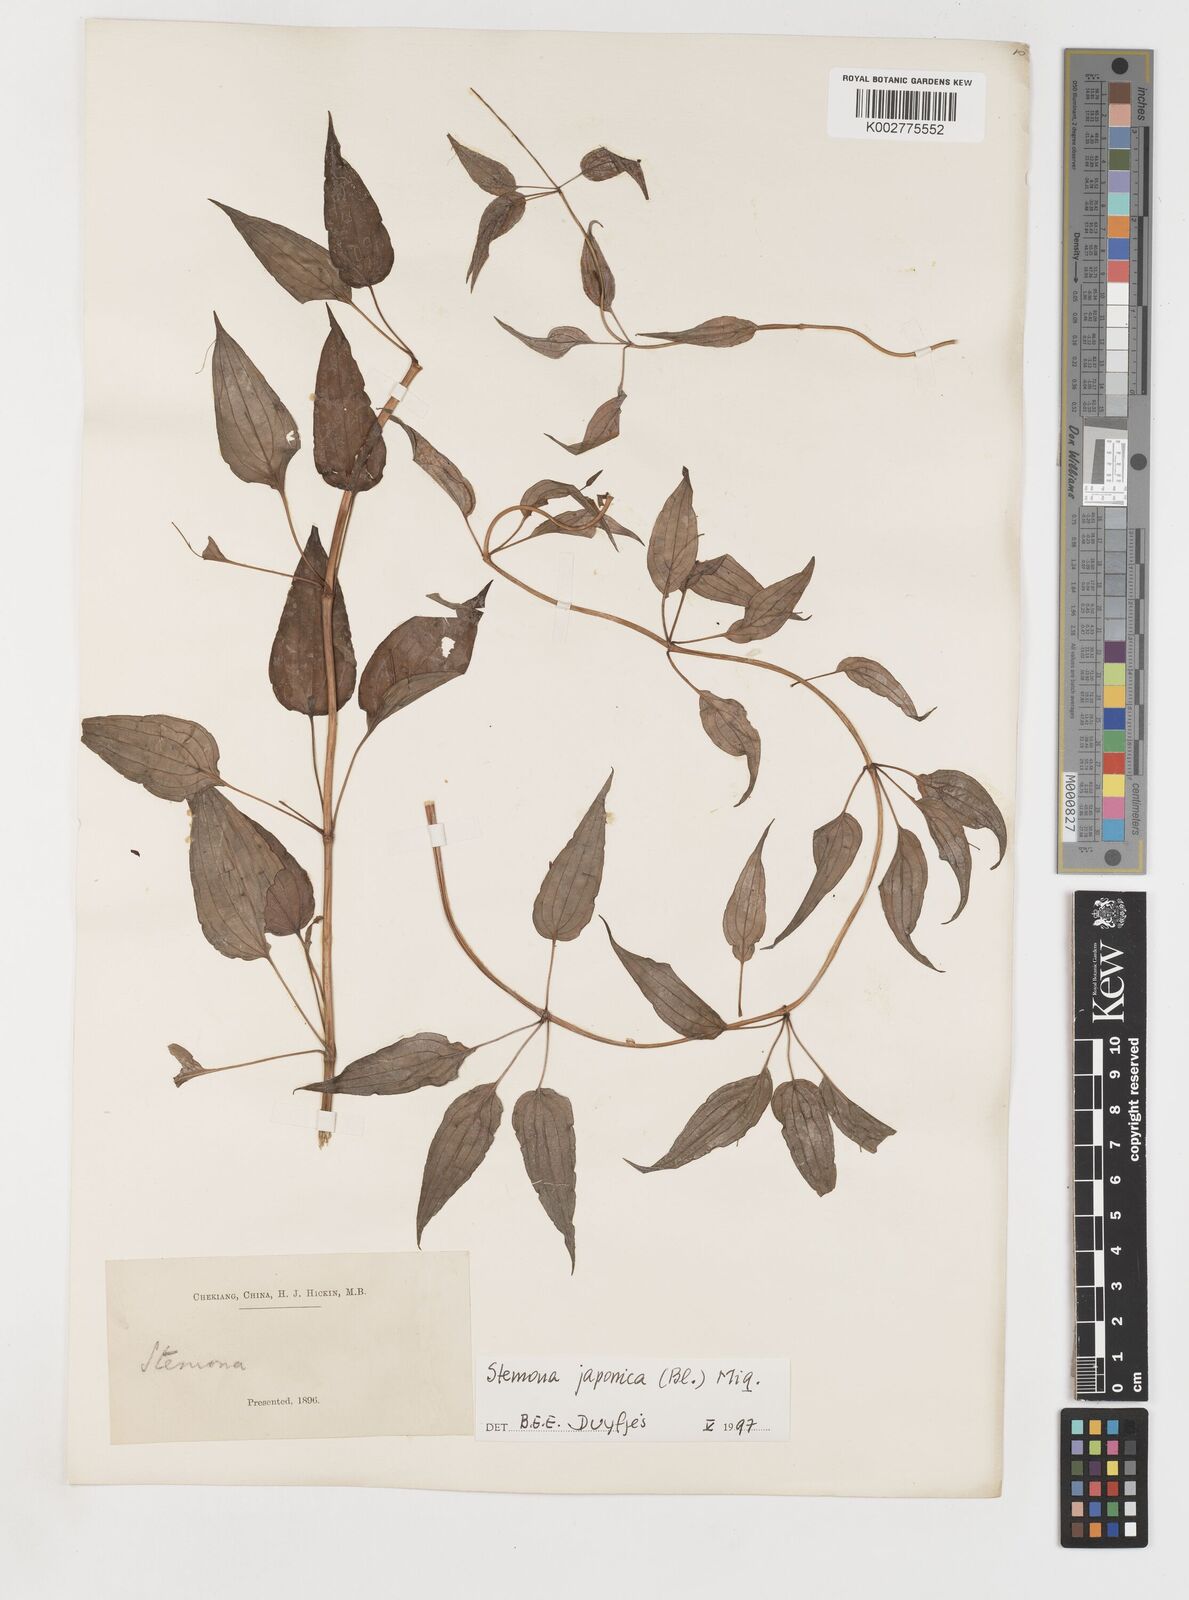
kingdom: Plantae
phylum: Tracheophyta
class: Liliopsida
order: Pandanales
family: Stemonaceae
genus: Stemona
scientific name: Stemona japonica
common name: Stemona
